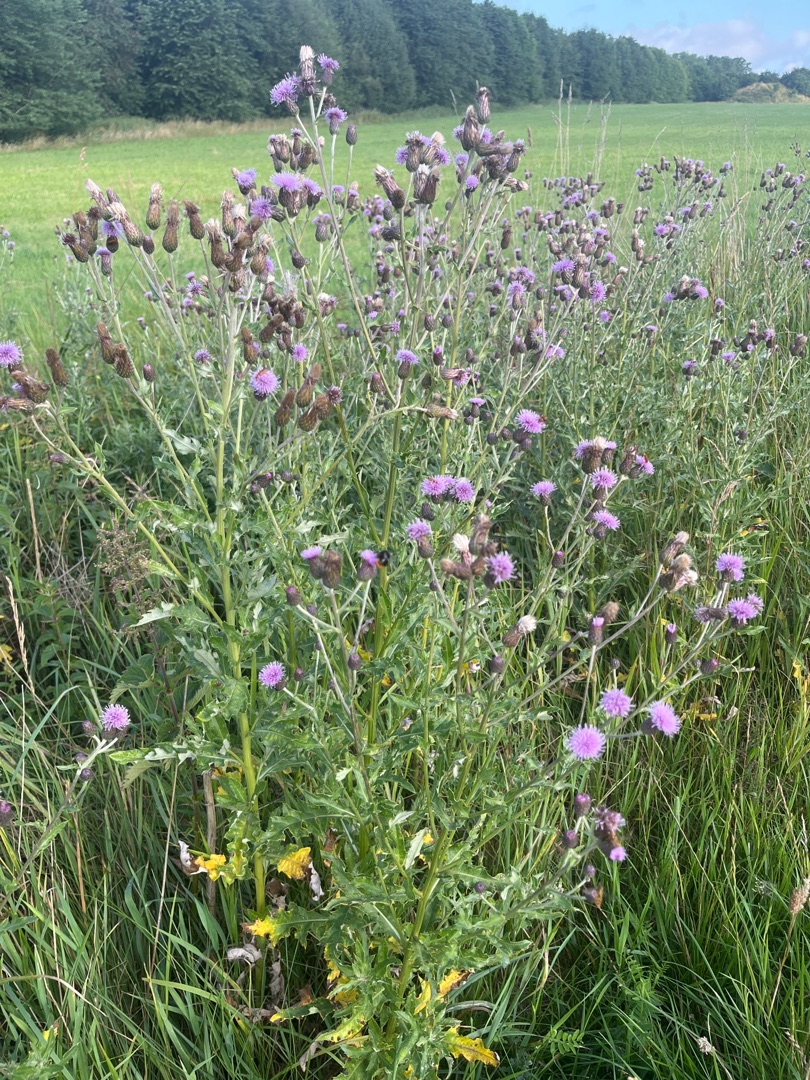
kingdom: Plantae
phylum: Tracheophyta
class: Magnoliopsida
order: Asterales
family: Asteraceae
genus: Cirsium
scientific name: Cirsium arvense
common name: Ager-tidsel
